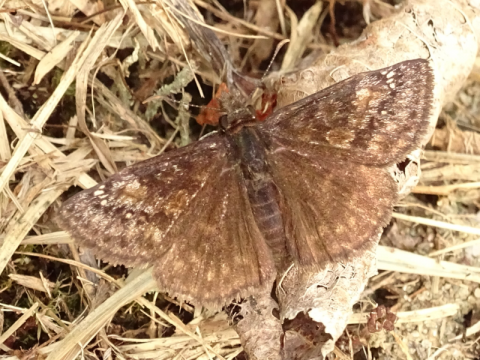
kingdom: Animalia
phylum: Arthropoda
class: Insecta
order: Lepidoptera
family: Hesperiidae
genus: Gesta
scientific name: Gesta
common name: Wild Indigo Duskywing
